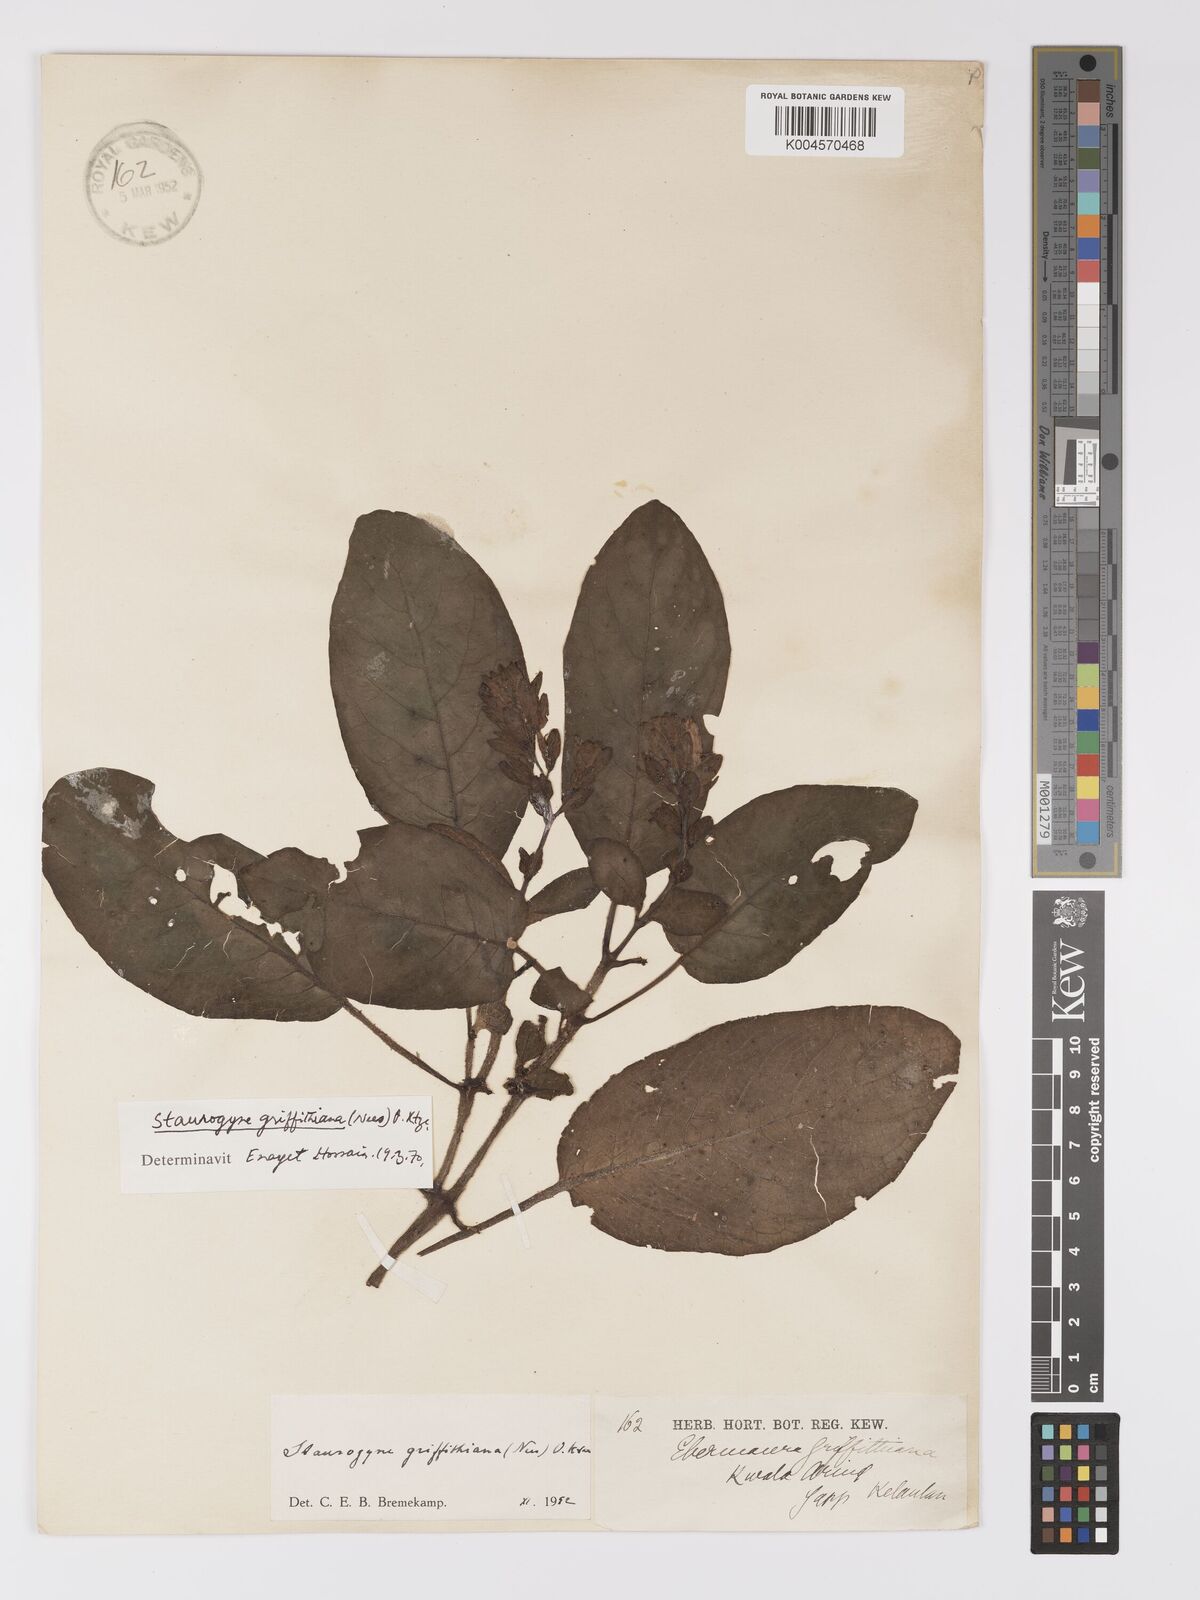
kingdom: Plantae
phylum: Tracheophyta
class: Magnoliopsida
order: Lamiales
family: Acanthaceae
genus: Staurogyne
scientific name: Staurogyne griffithiana
